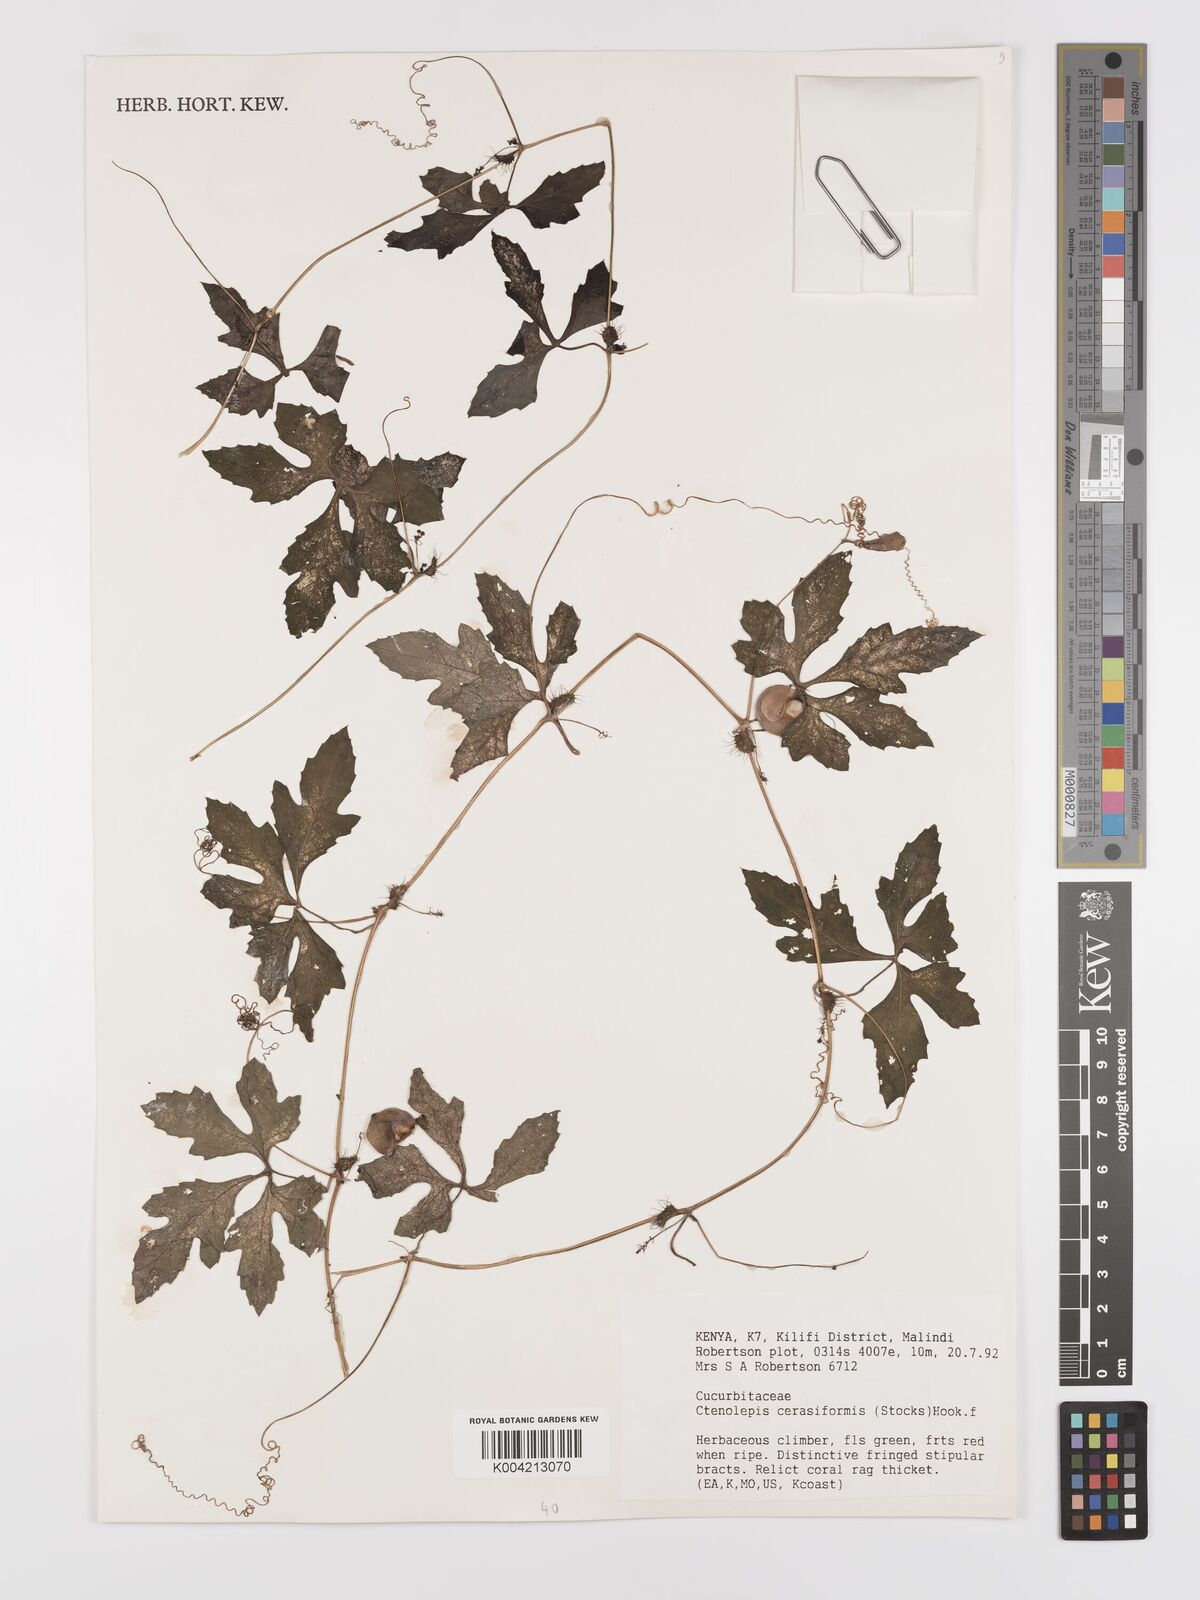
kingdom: Plantae
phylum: Tracheophyta
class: Magnoliopsida
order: Cucurbitales
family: Cucurbitaceae
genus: Blastania
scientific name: Blastania cerasiformis
